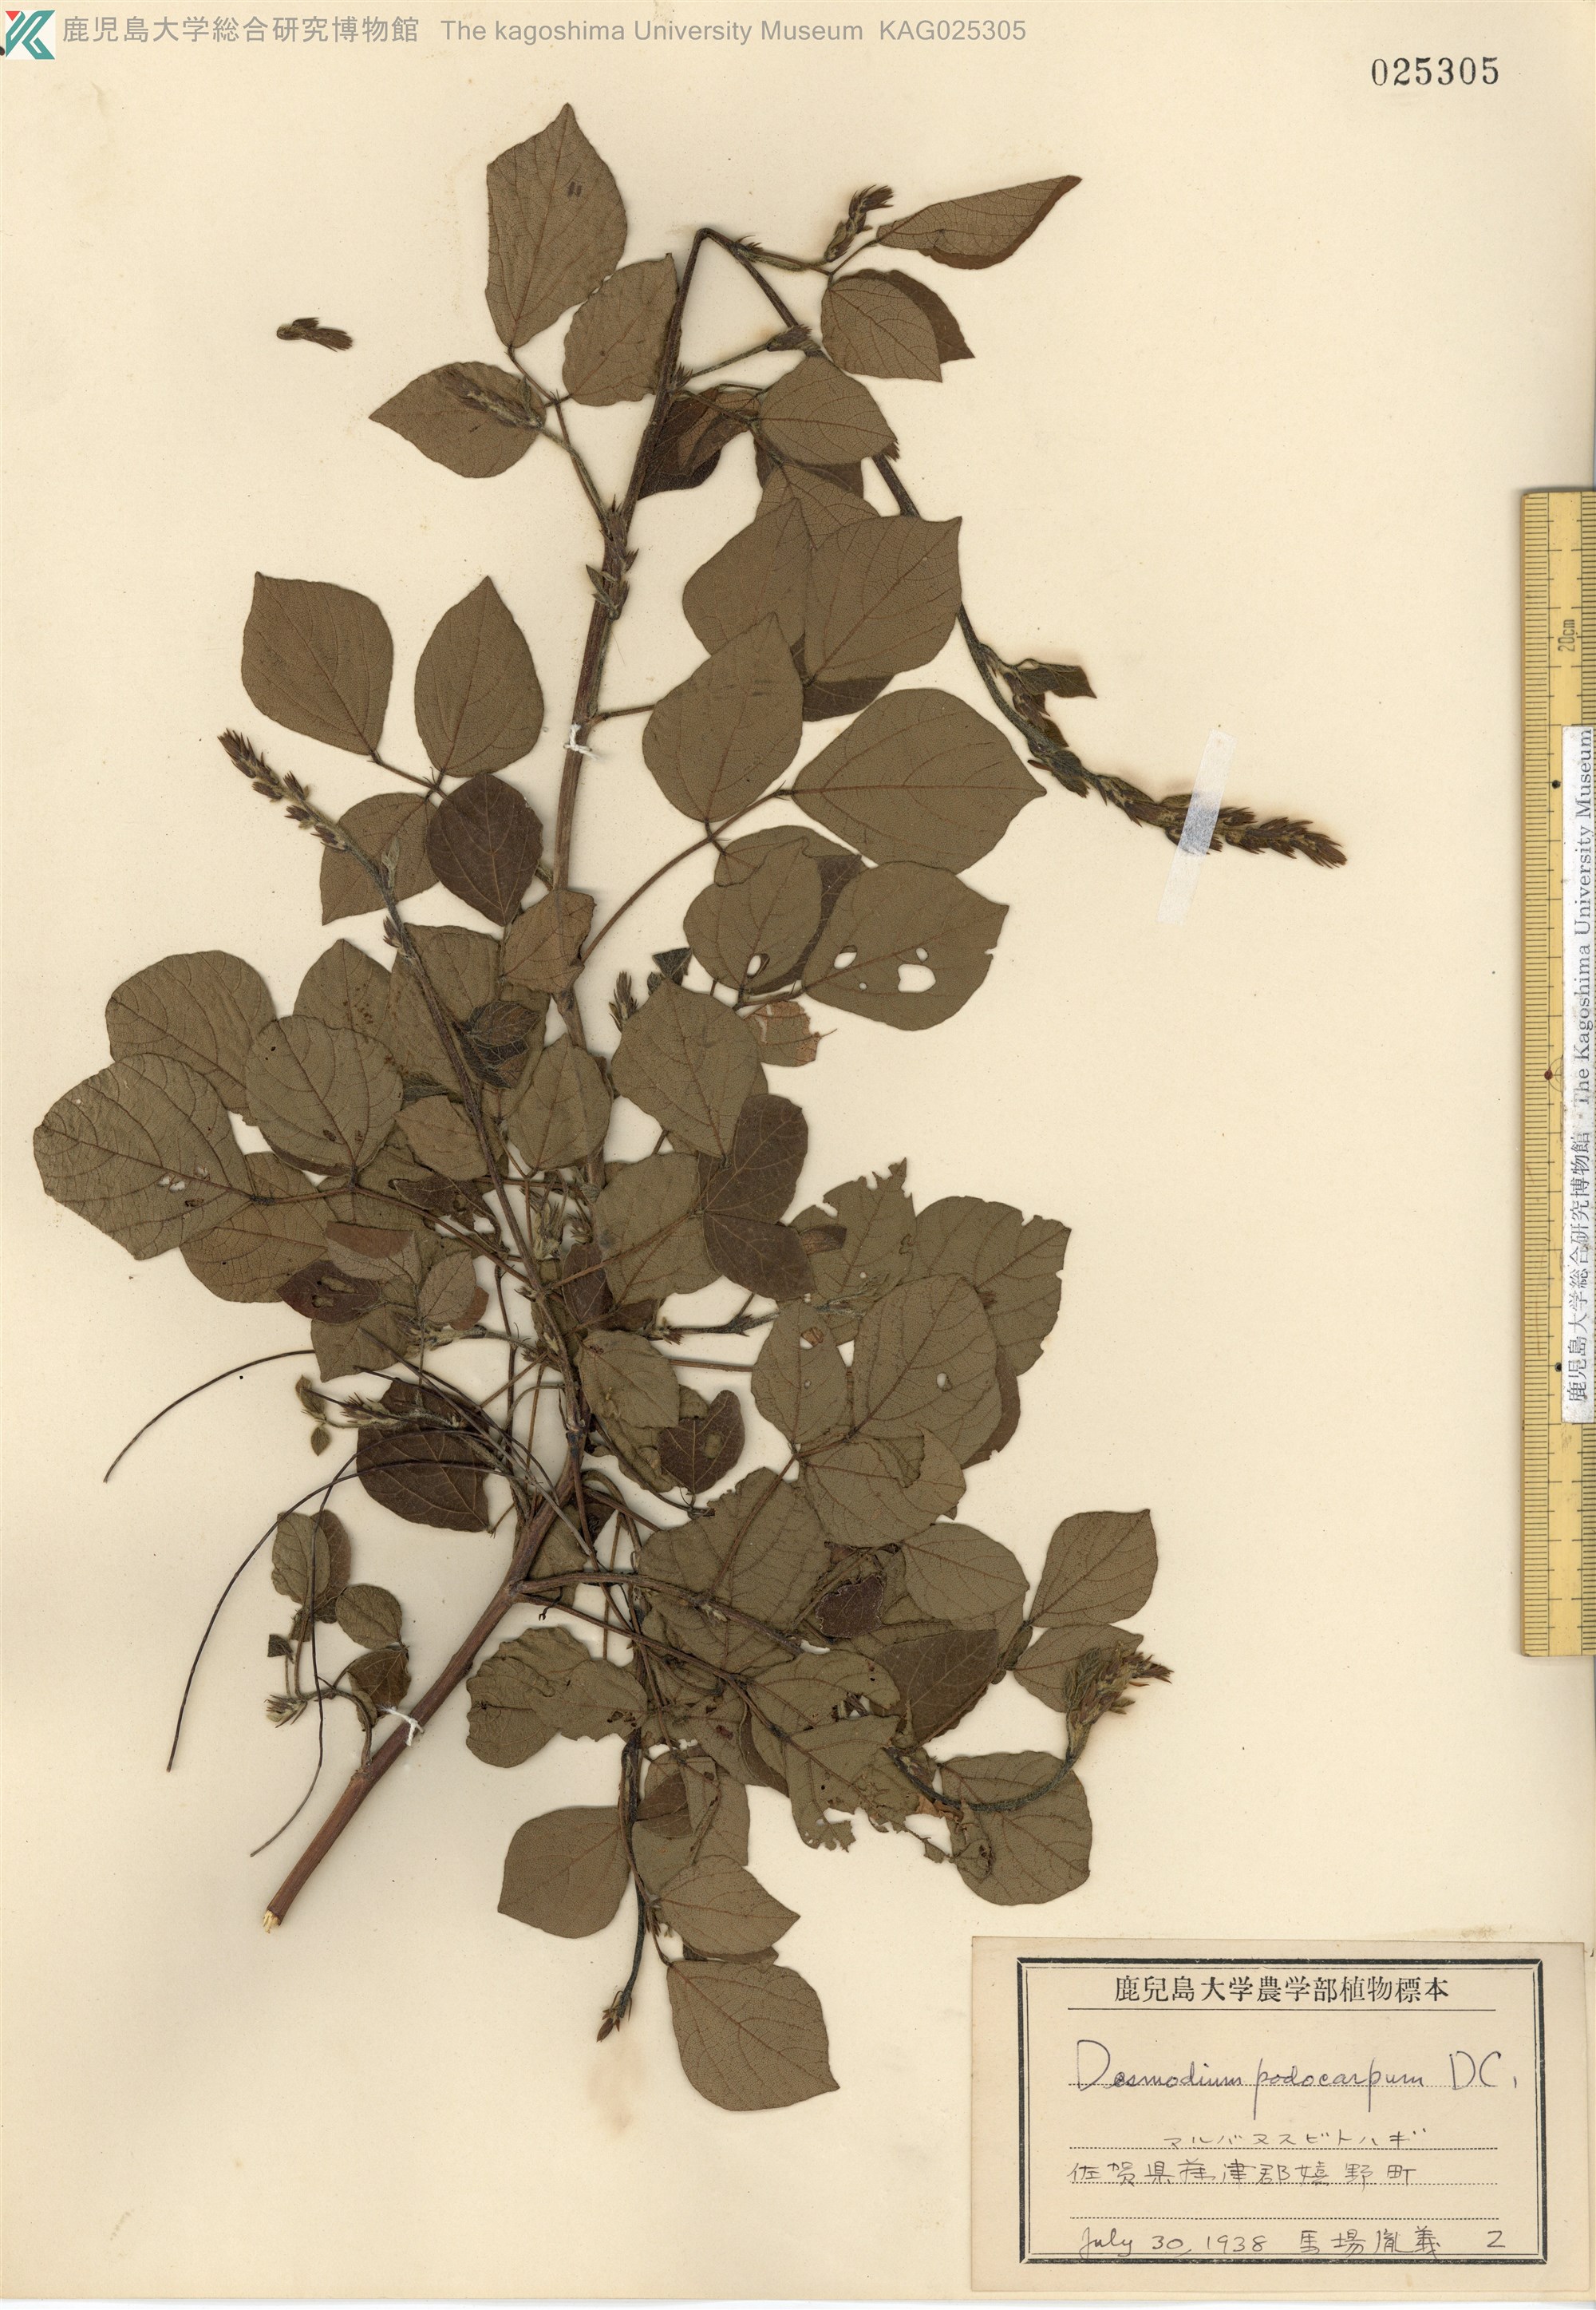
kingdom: Plantae
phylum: Tracheophyta
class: Magnoliopsida
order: Fabales
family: Fabaceae
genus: Hylodesmum
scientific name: Hylodesmum podocarpum
